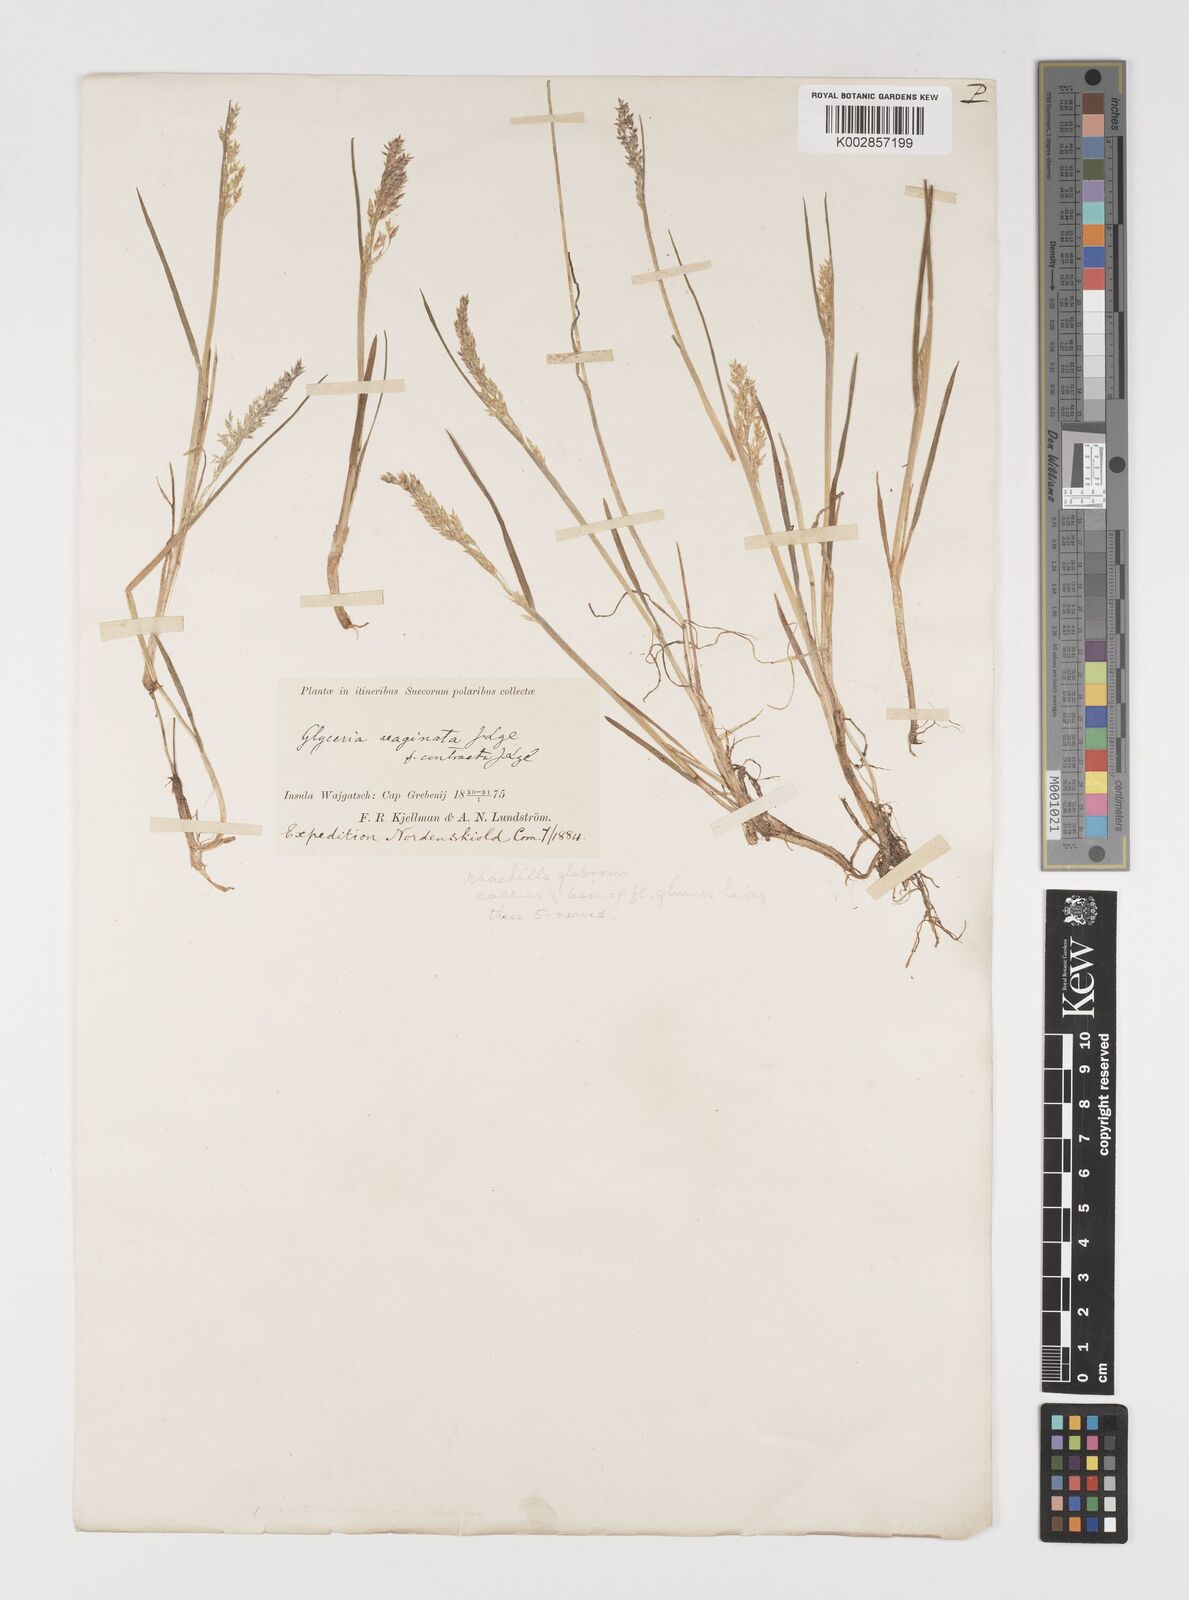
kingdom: Plantae
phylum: Tracheophyta
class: Liliopsida
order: Poales
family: Poaceae
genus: Puccinellia
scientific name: Puccinellia vahliana
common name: Vahl's alkaligrass
